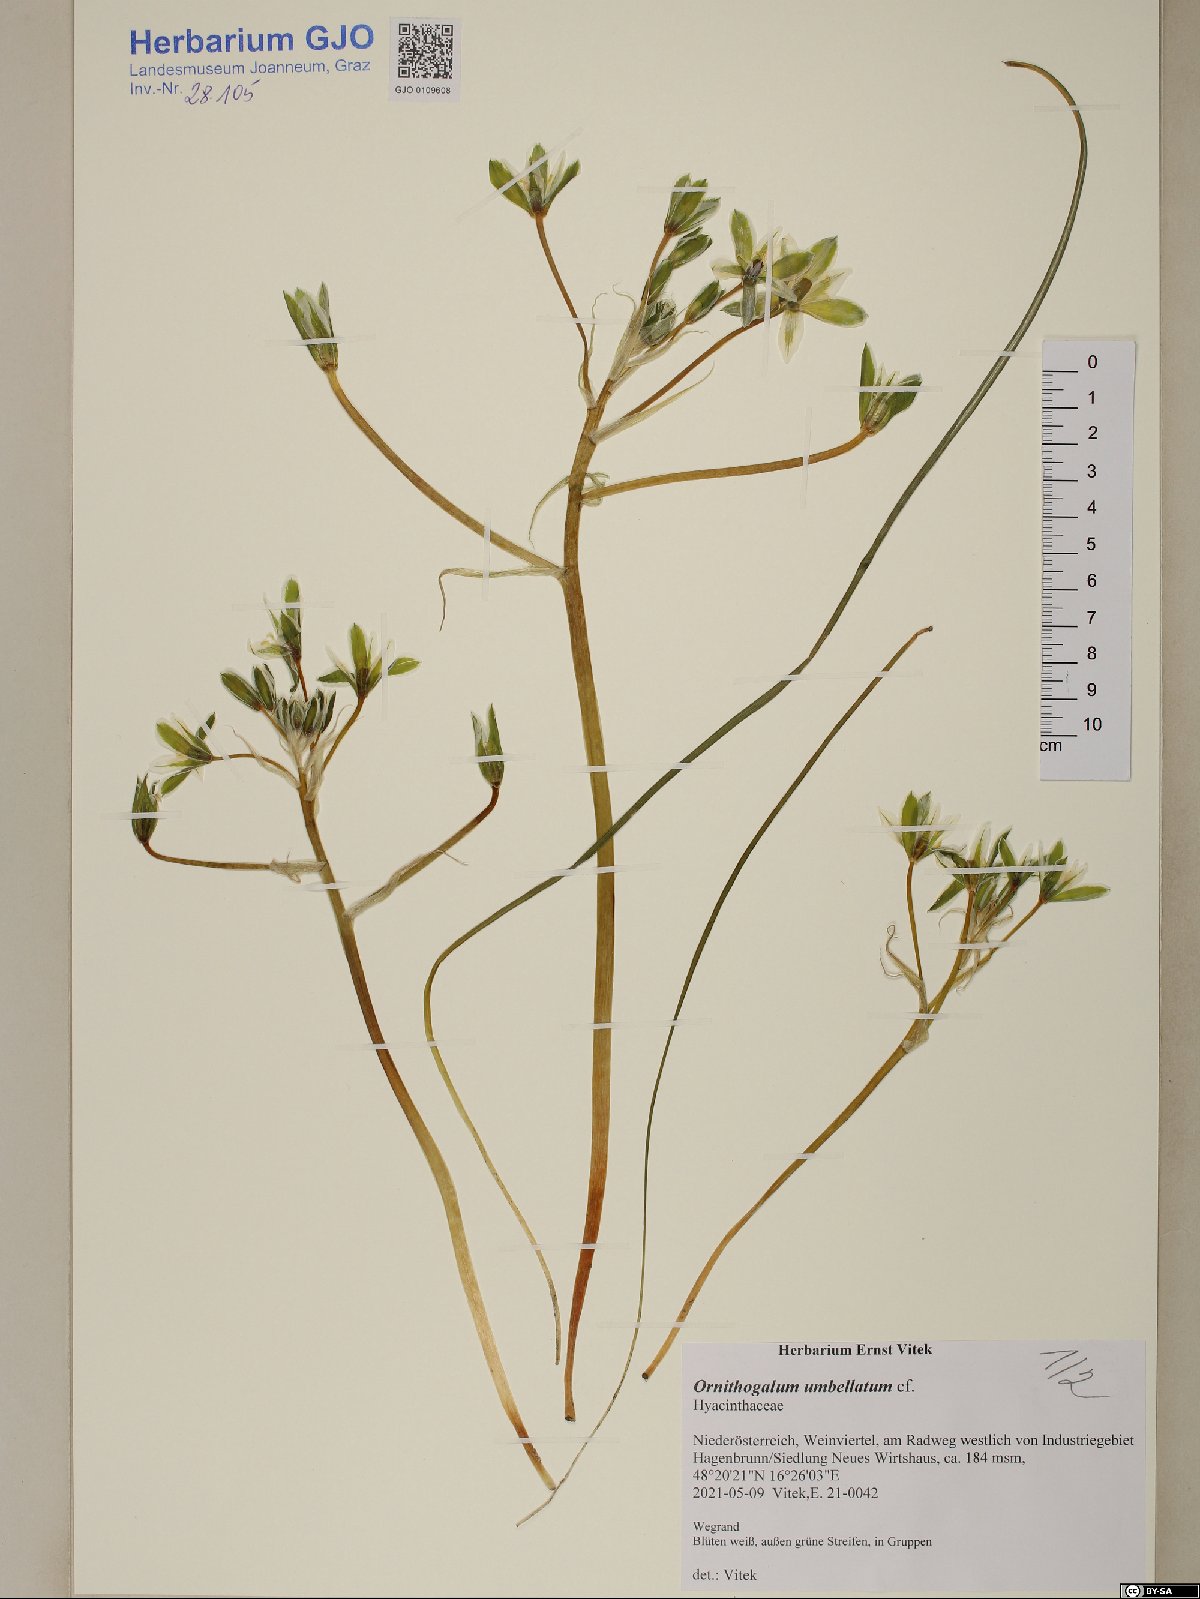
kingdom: Plantae
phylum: Tracheophyta
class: Liliopsida
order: Asparagales
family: Asparagaceae
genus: Ornithogalum
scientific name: Ornithogalum umbellatum
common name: Garden star-of-bethlehem
